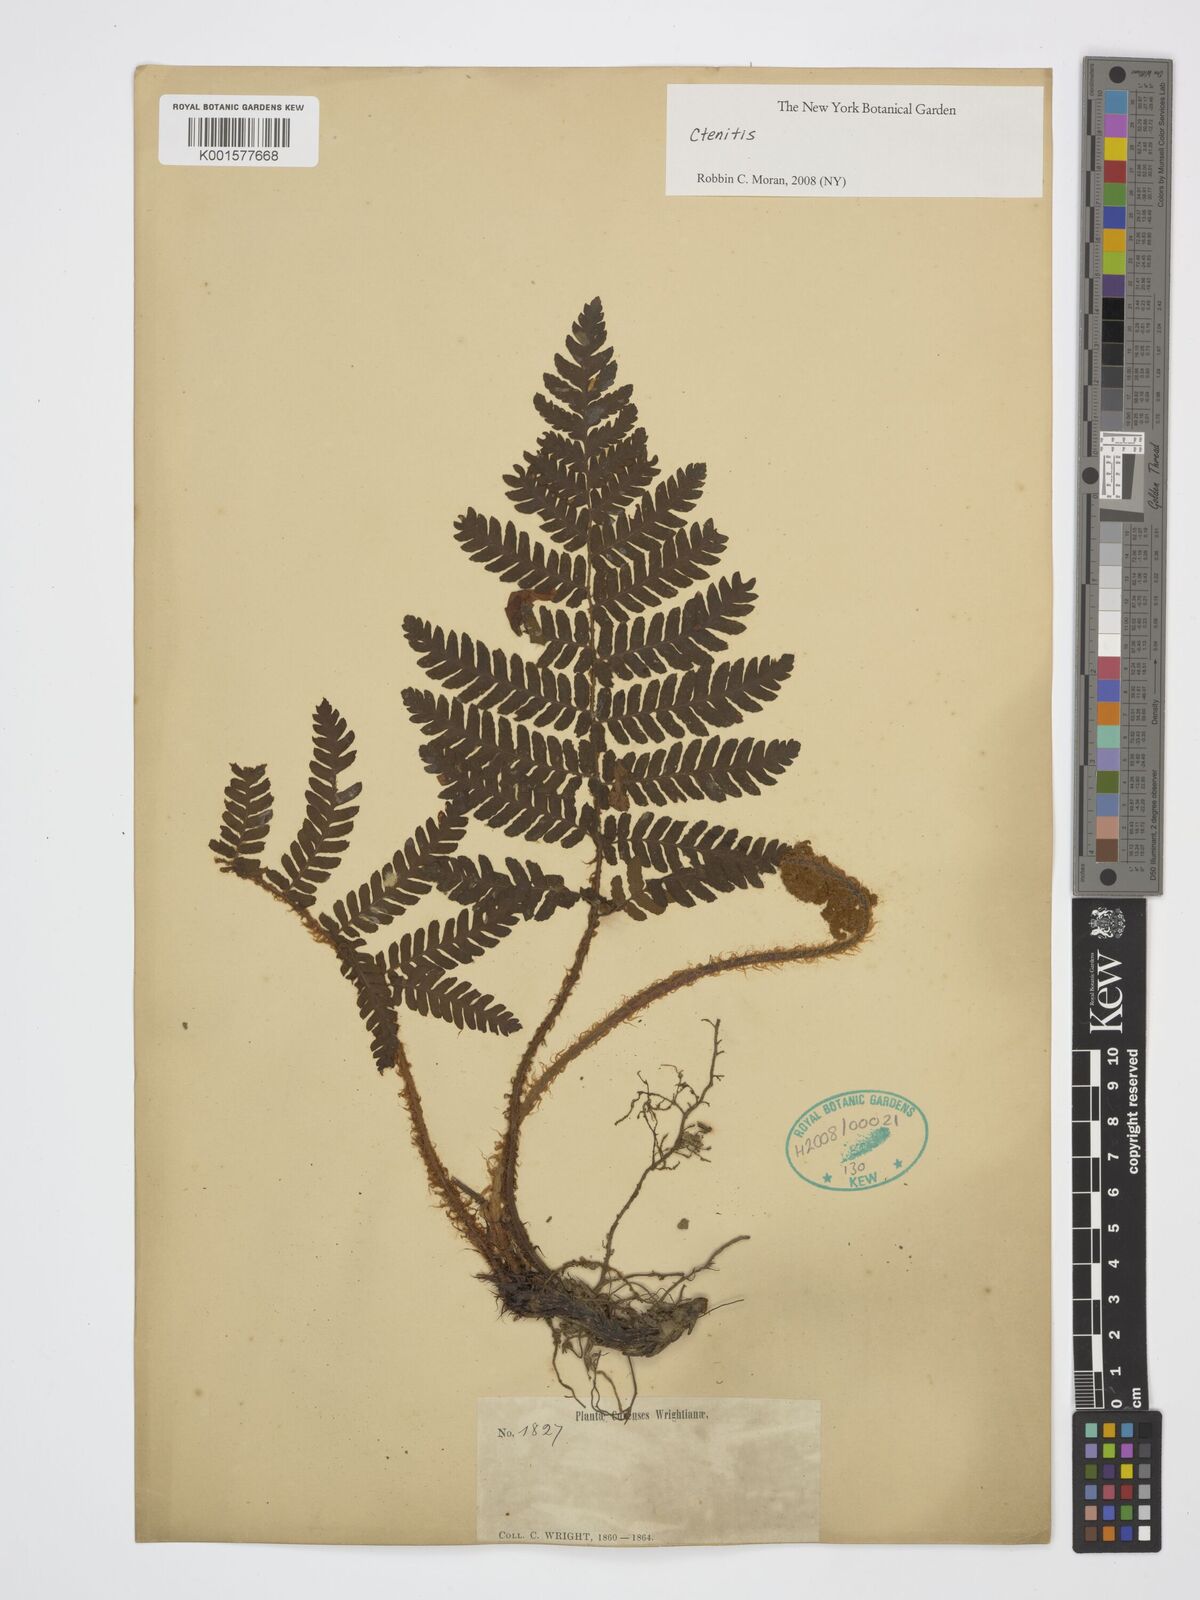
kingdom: Plantae
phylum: Tracheophyta
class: Polypodiopsida
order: Polypodiales
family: Dryopteridaceae
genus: Ctenitis
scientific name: Ctenitis
